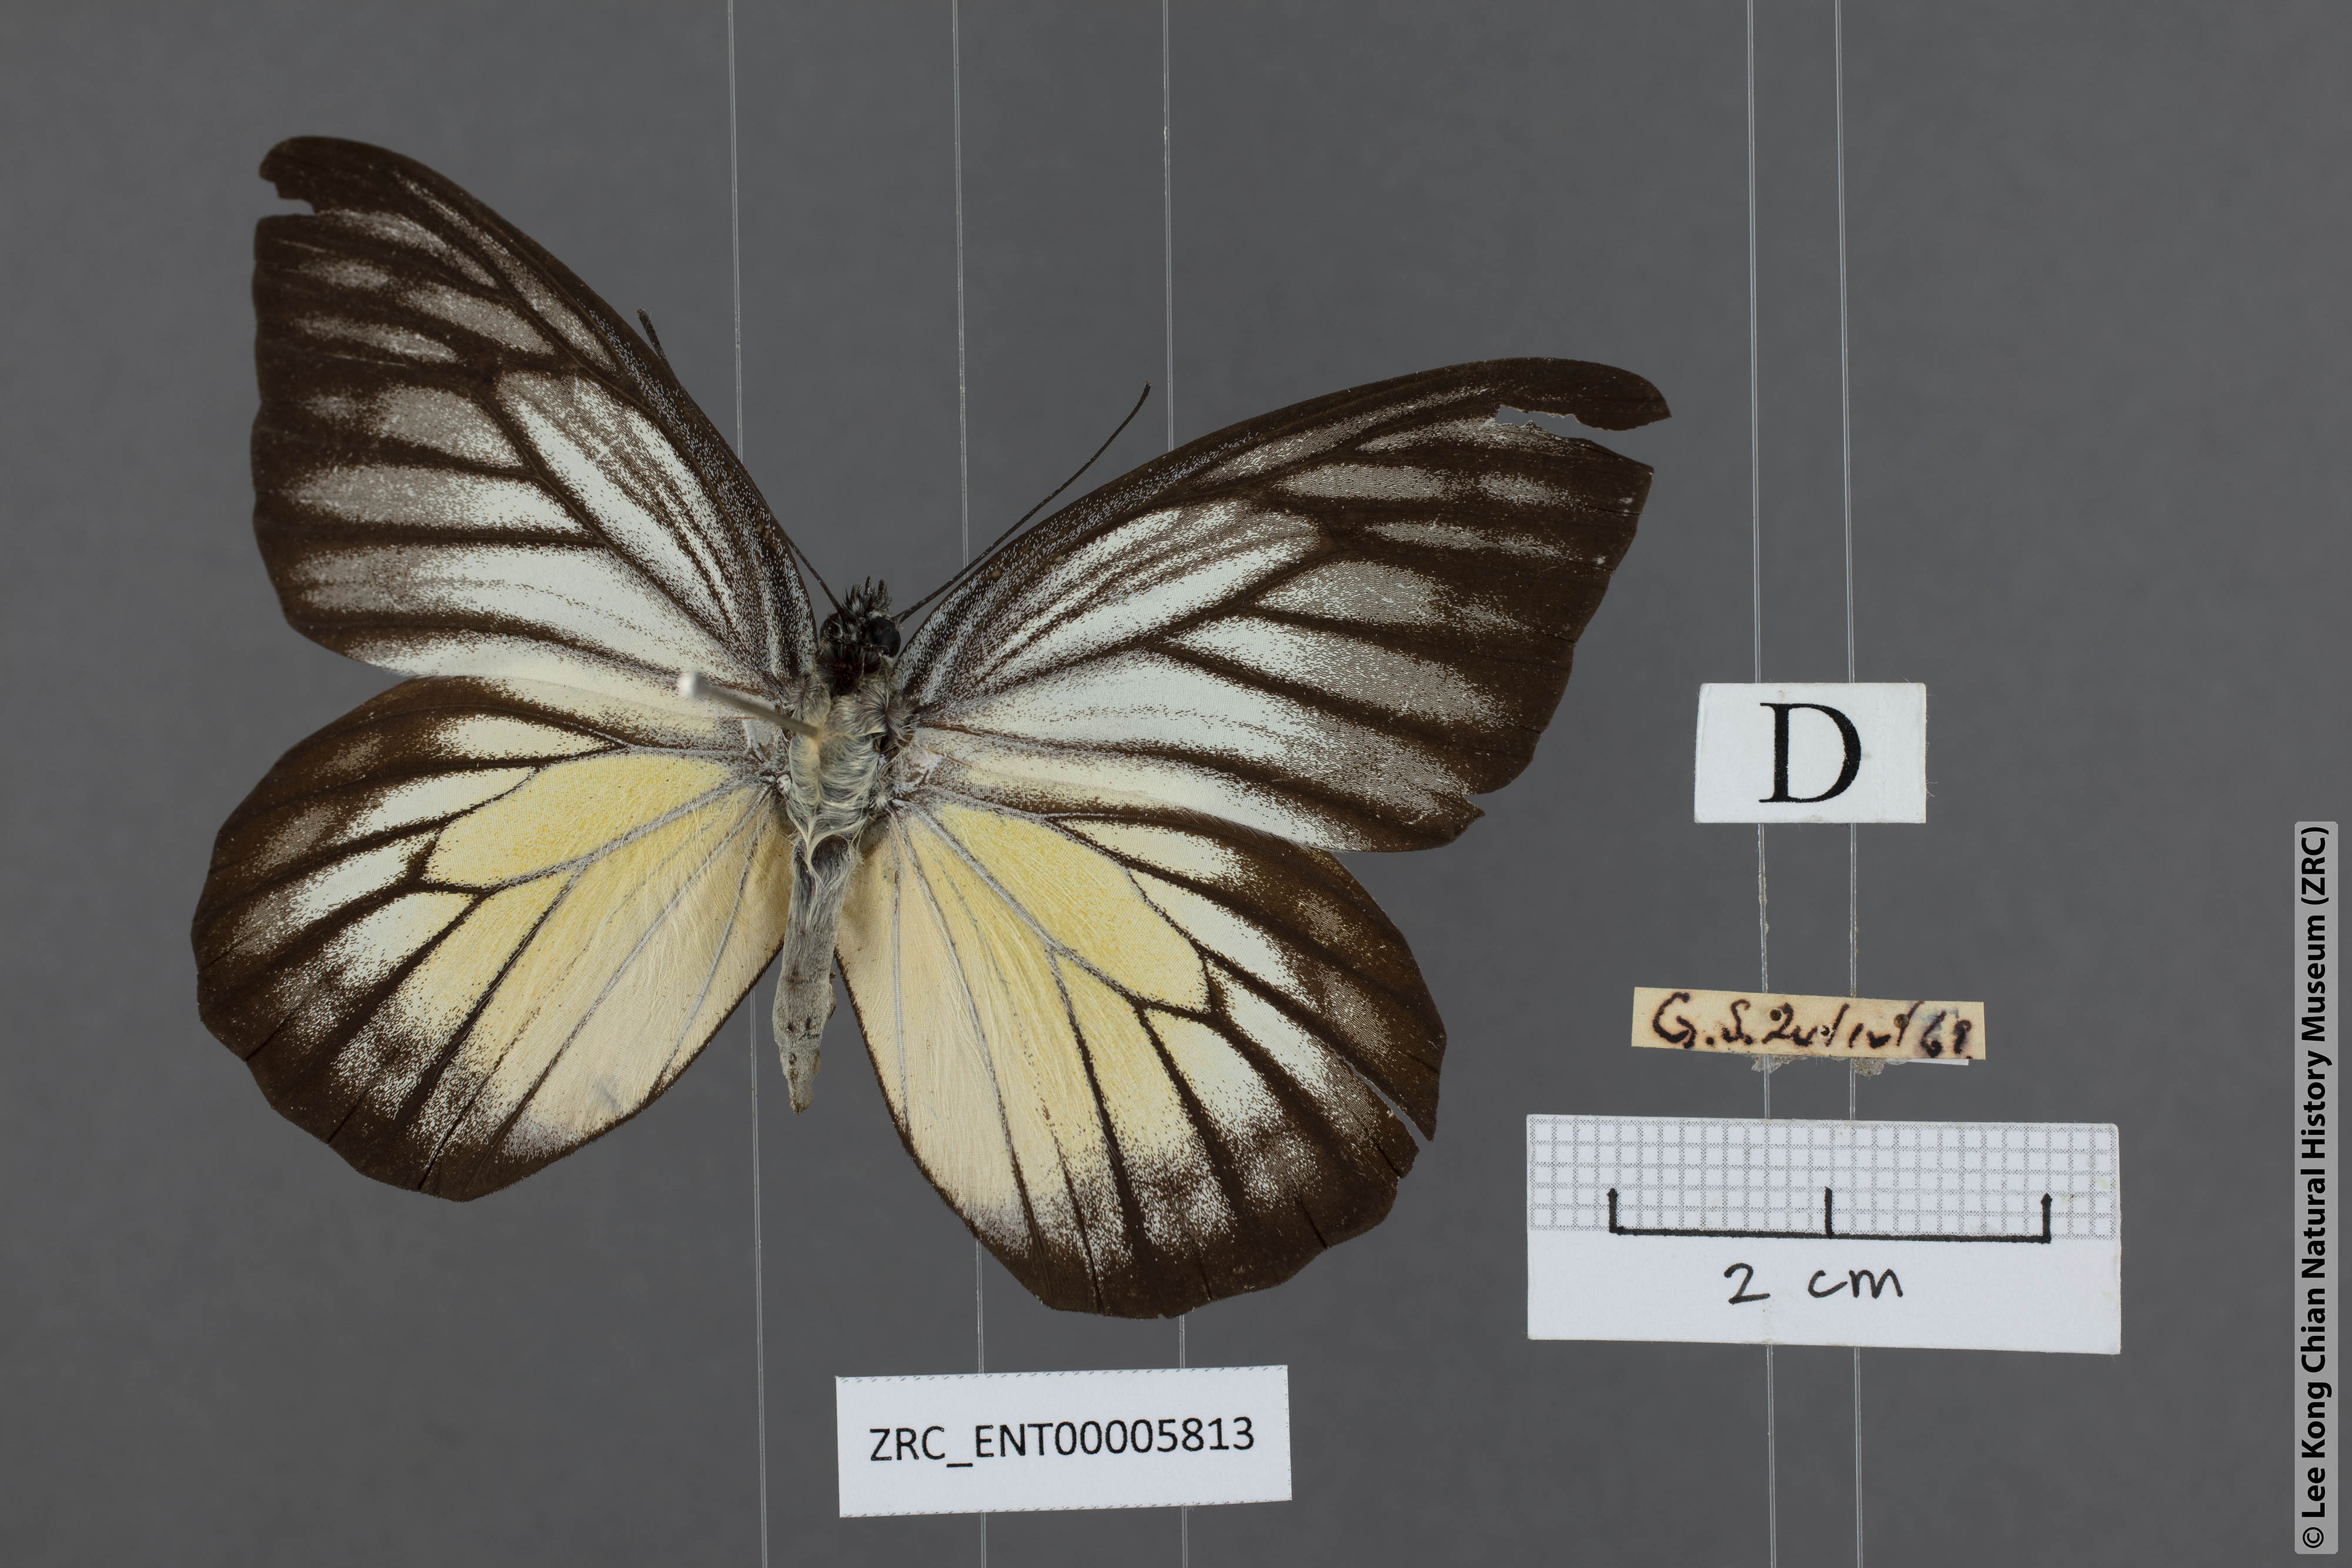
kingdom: Animalia
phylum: Arthropoda
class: Insecta
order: Lepidoptera
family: Pieridae
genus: Prioneris
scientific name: Prioneris philonome
